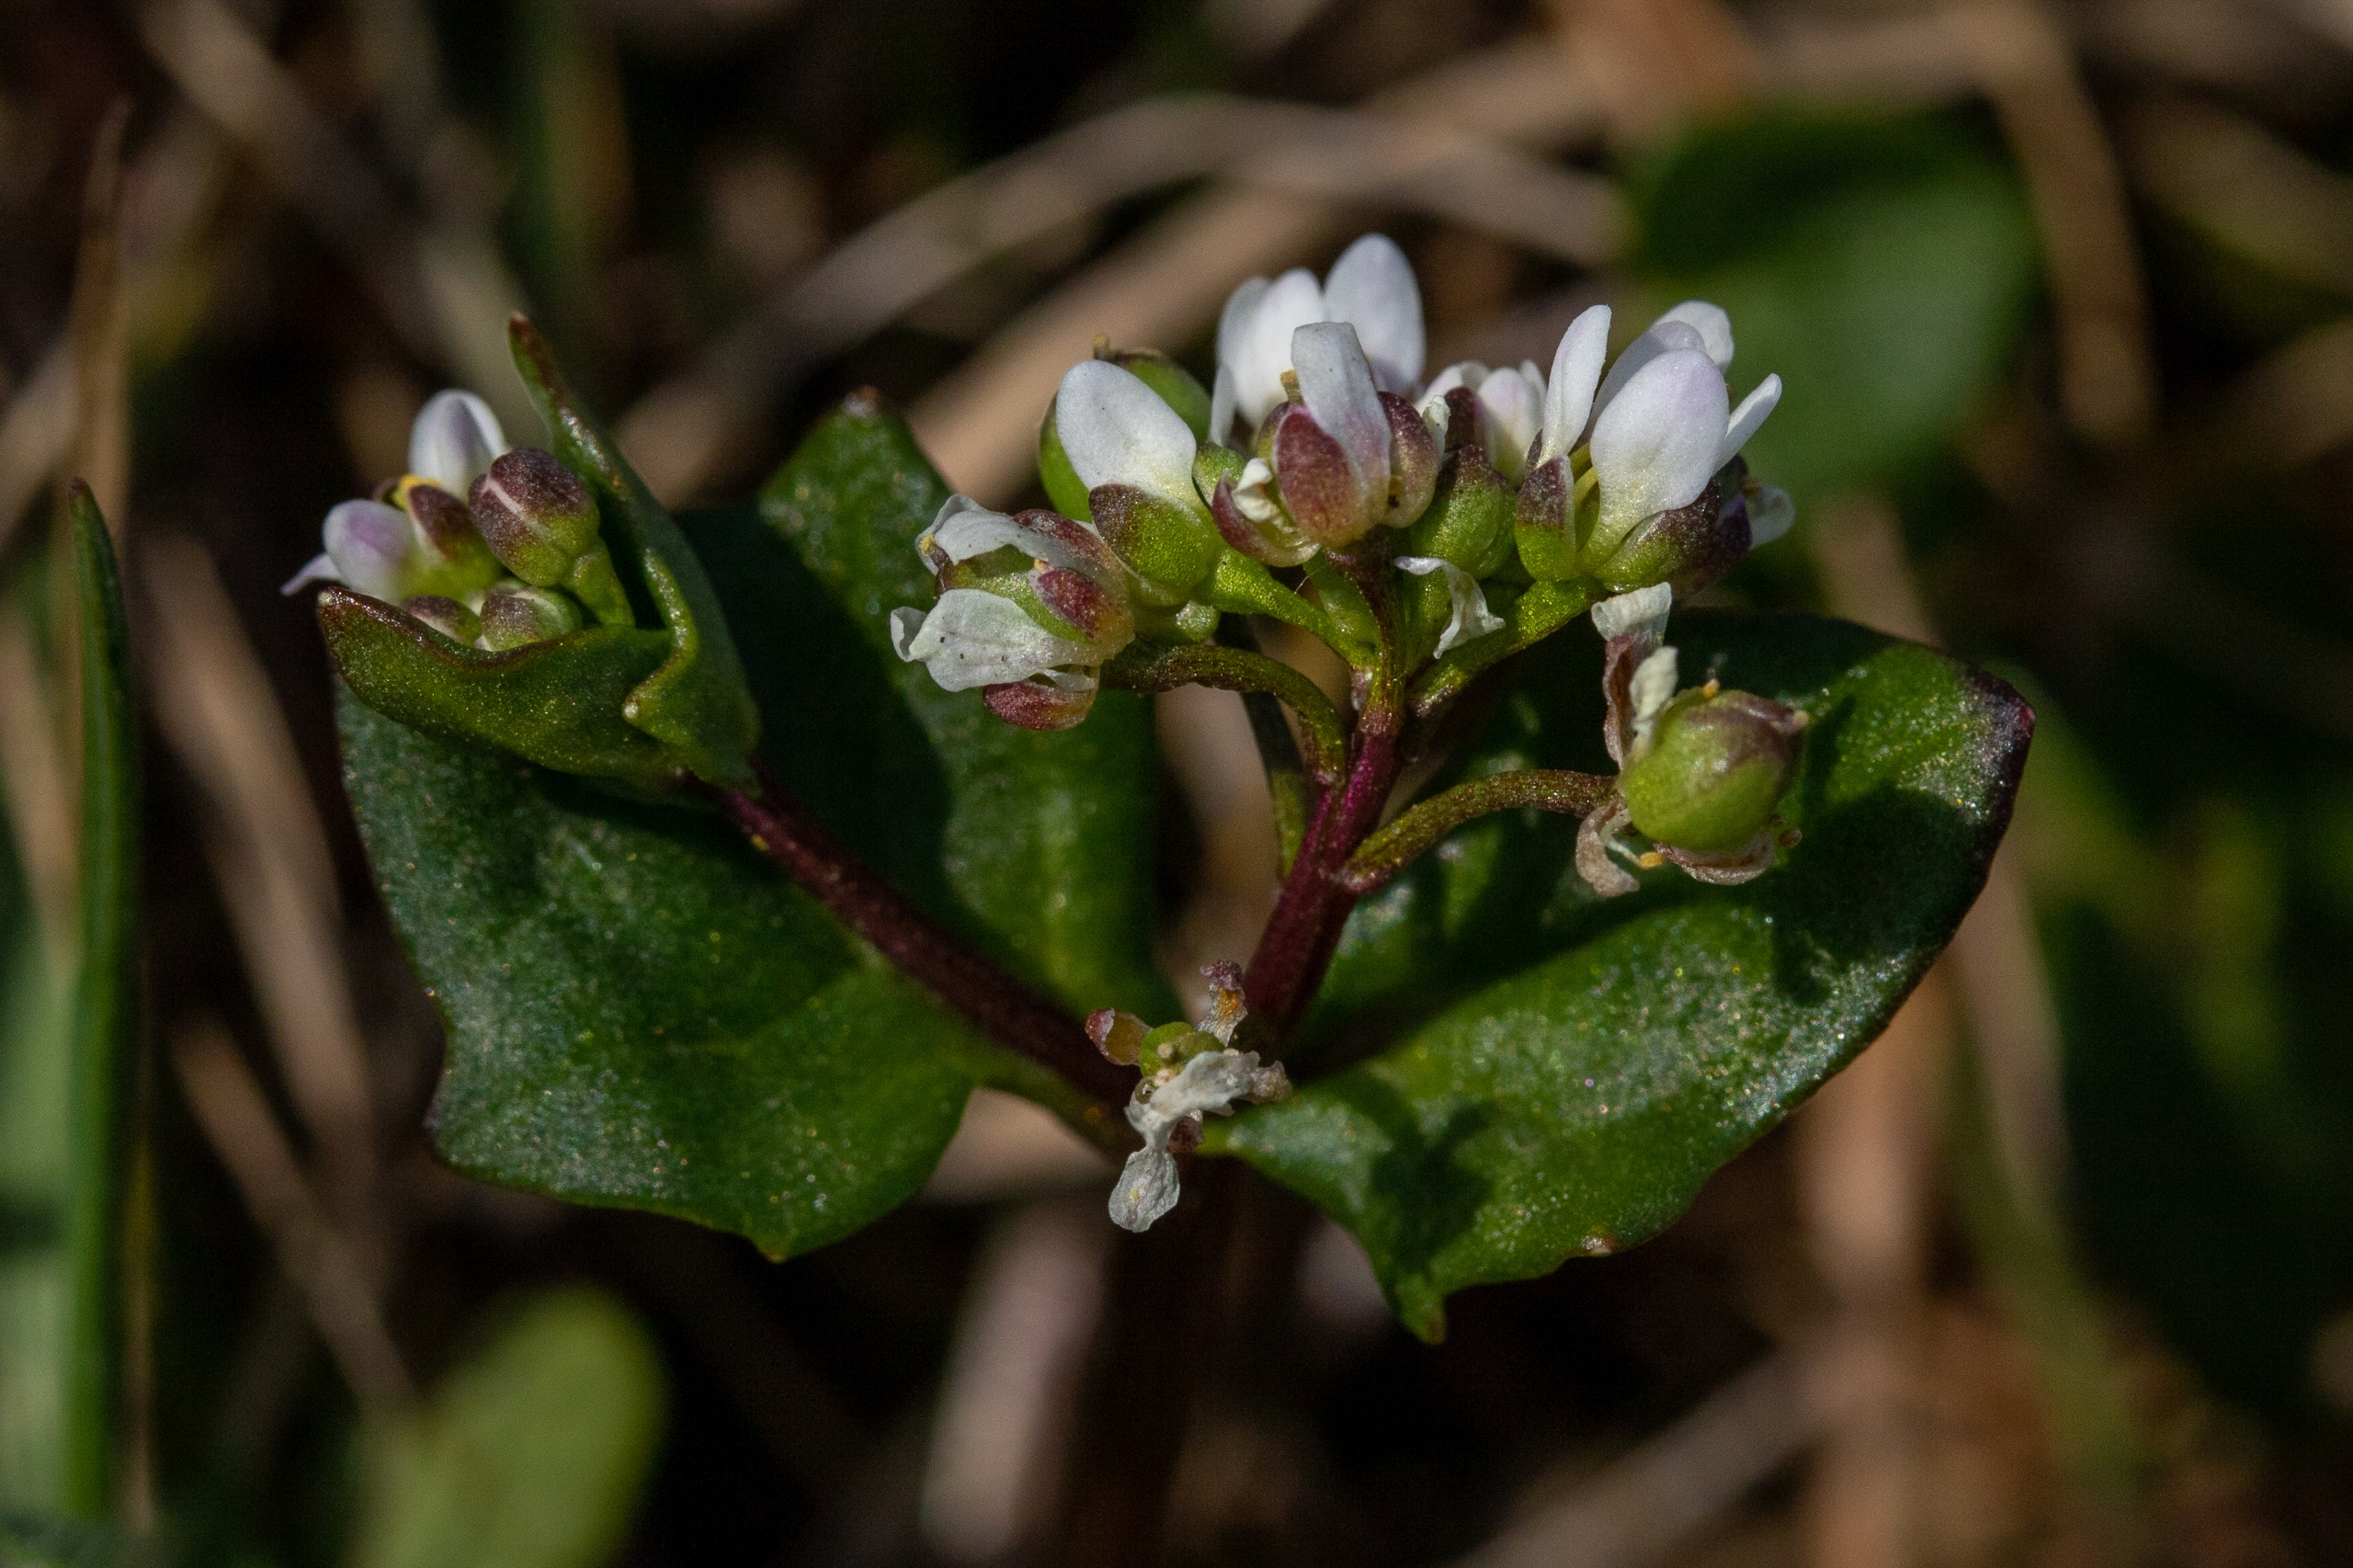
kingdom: Plantae
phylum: Tracheophyta
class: Magnoliopsida
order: Brassicales
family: Brassicaceae
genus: Cochlearia
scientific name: Cochlearia danica
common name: Dansk kokleare
